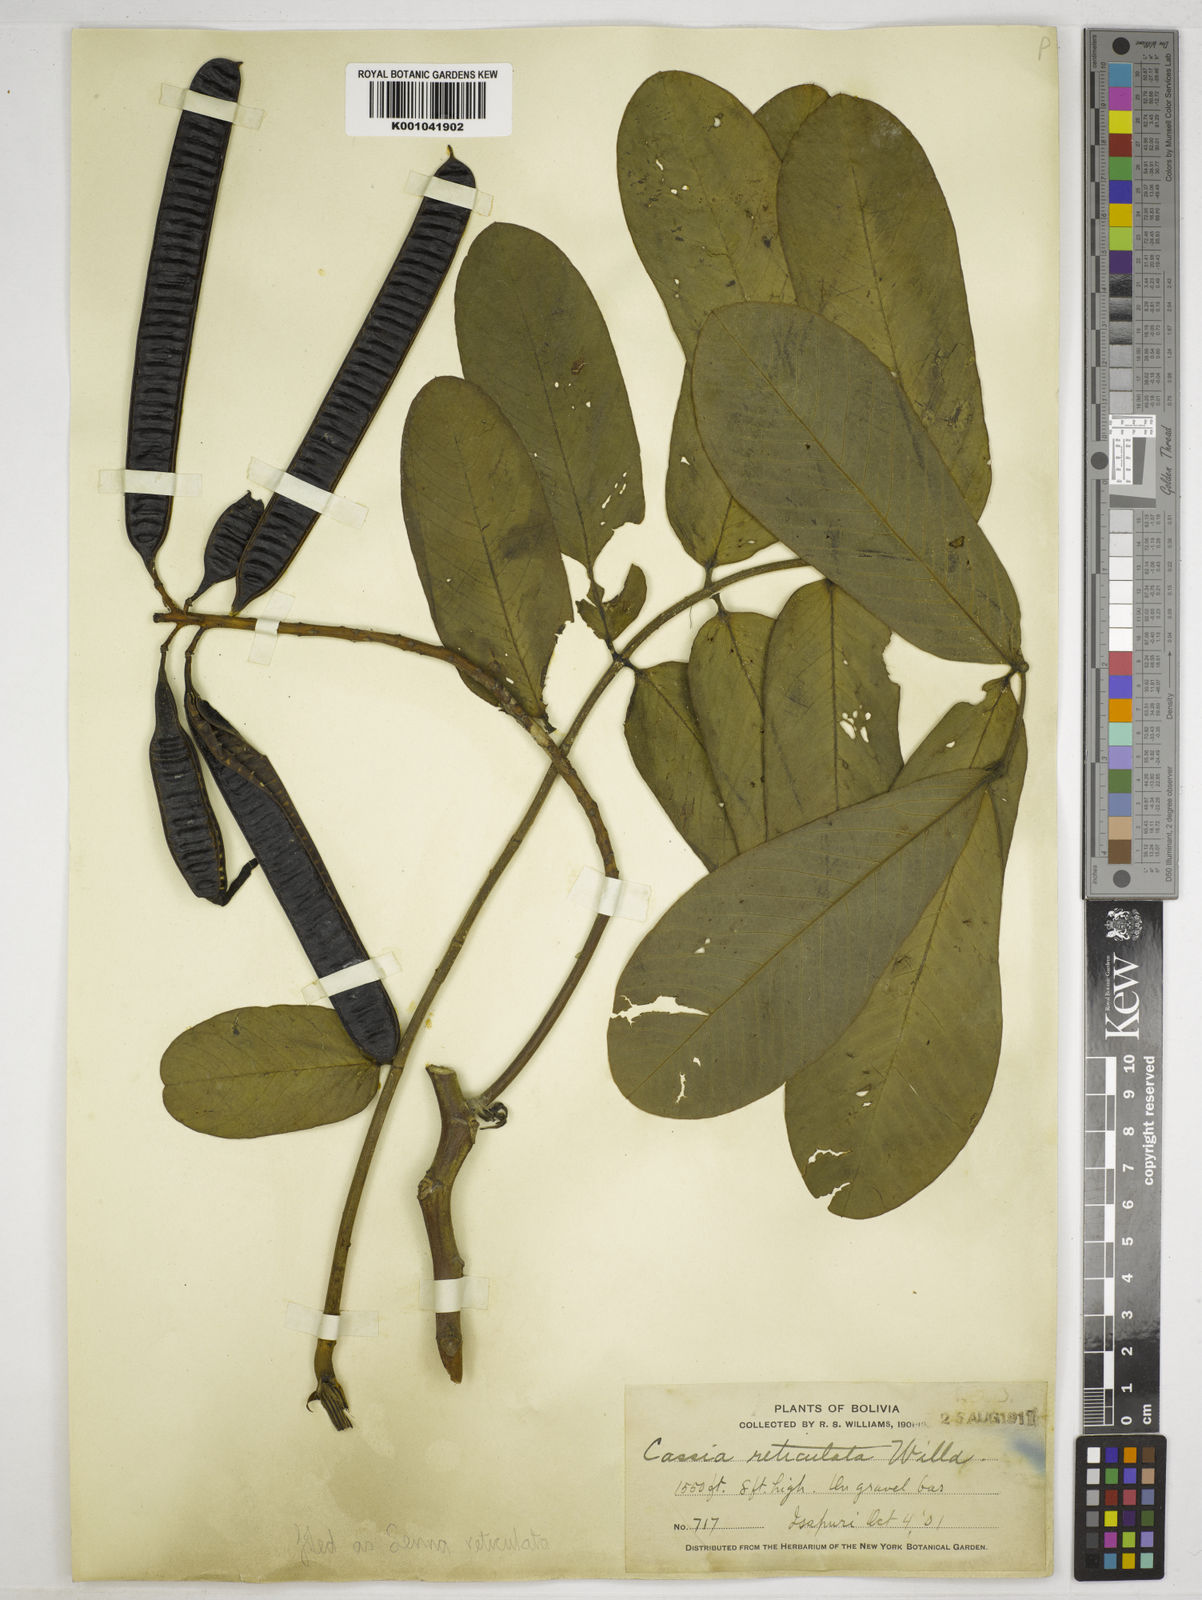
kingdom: Plantae
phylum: Tracheophyta
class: Magnoliopsida
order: Fabales
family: Fabaceae
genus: Senna
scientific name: Senna reticulata
